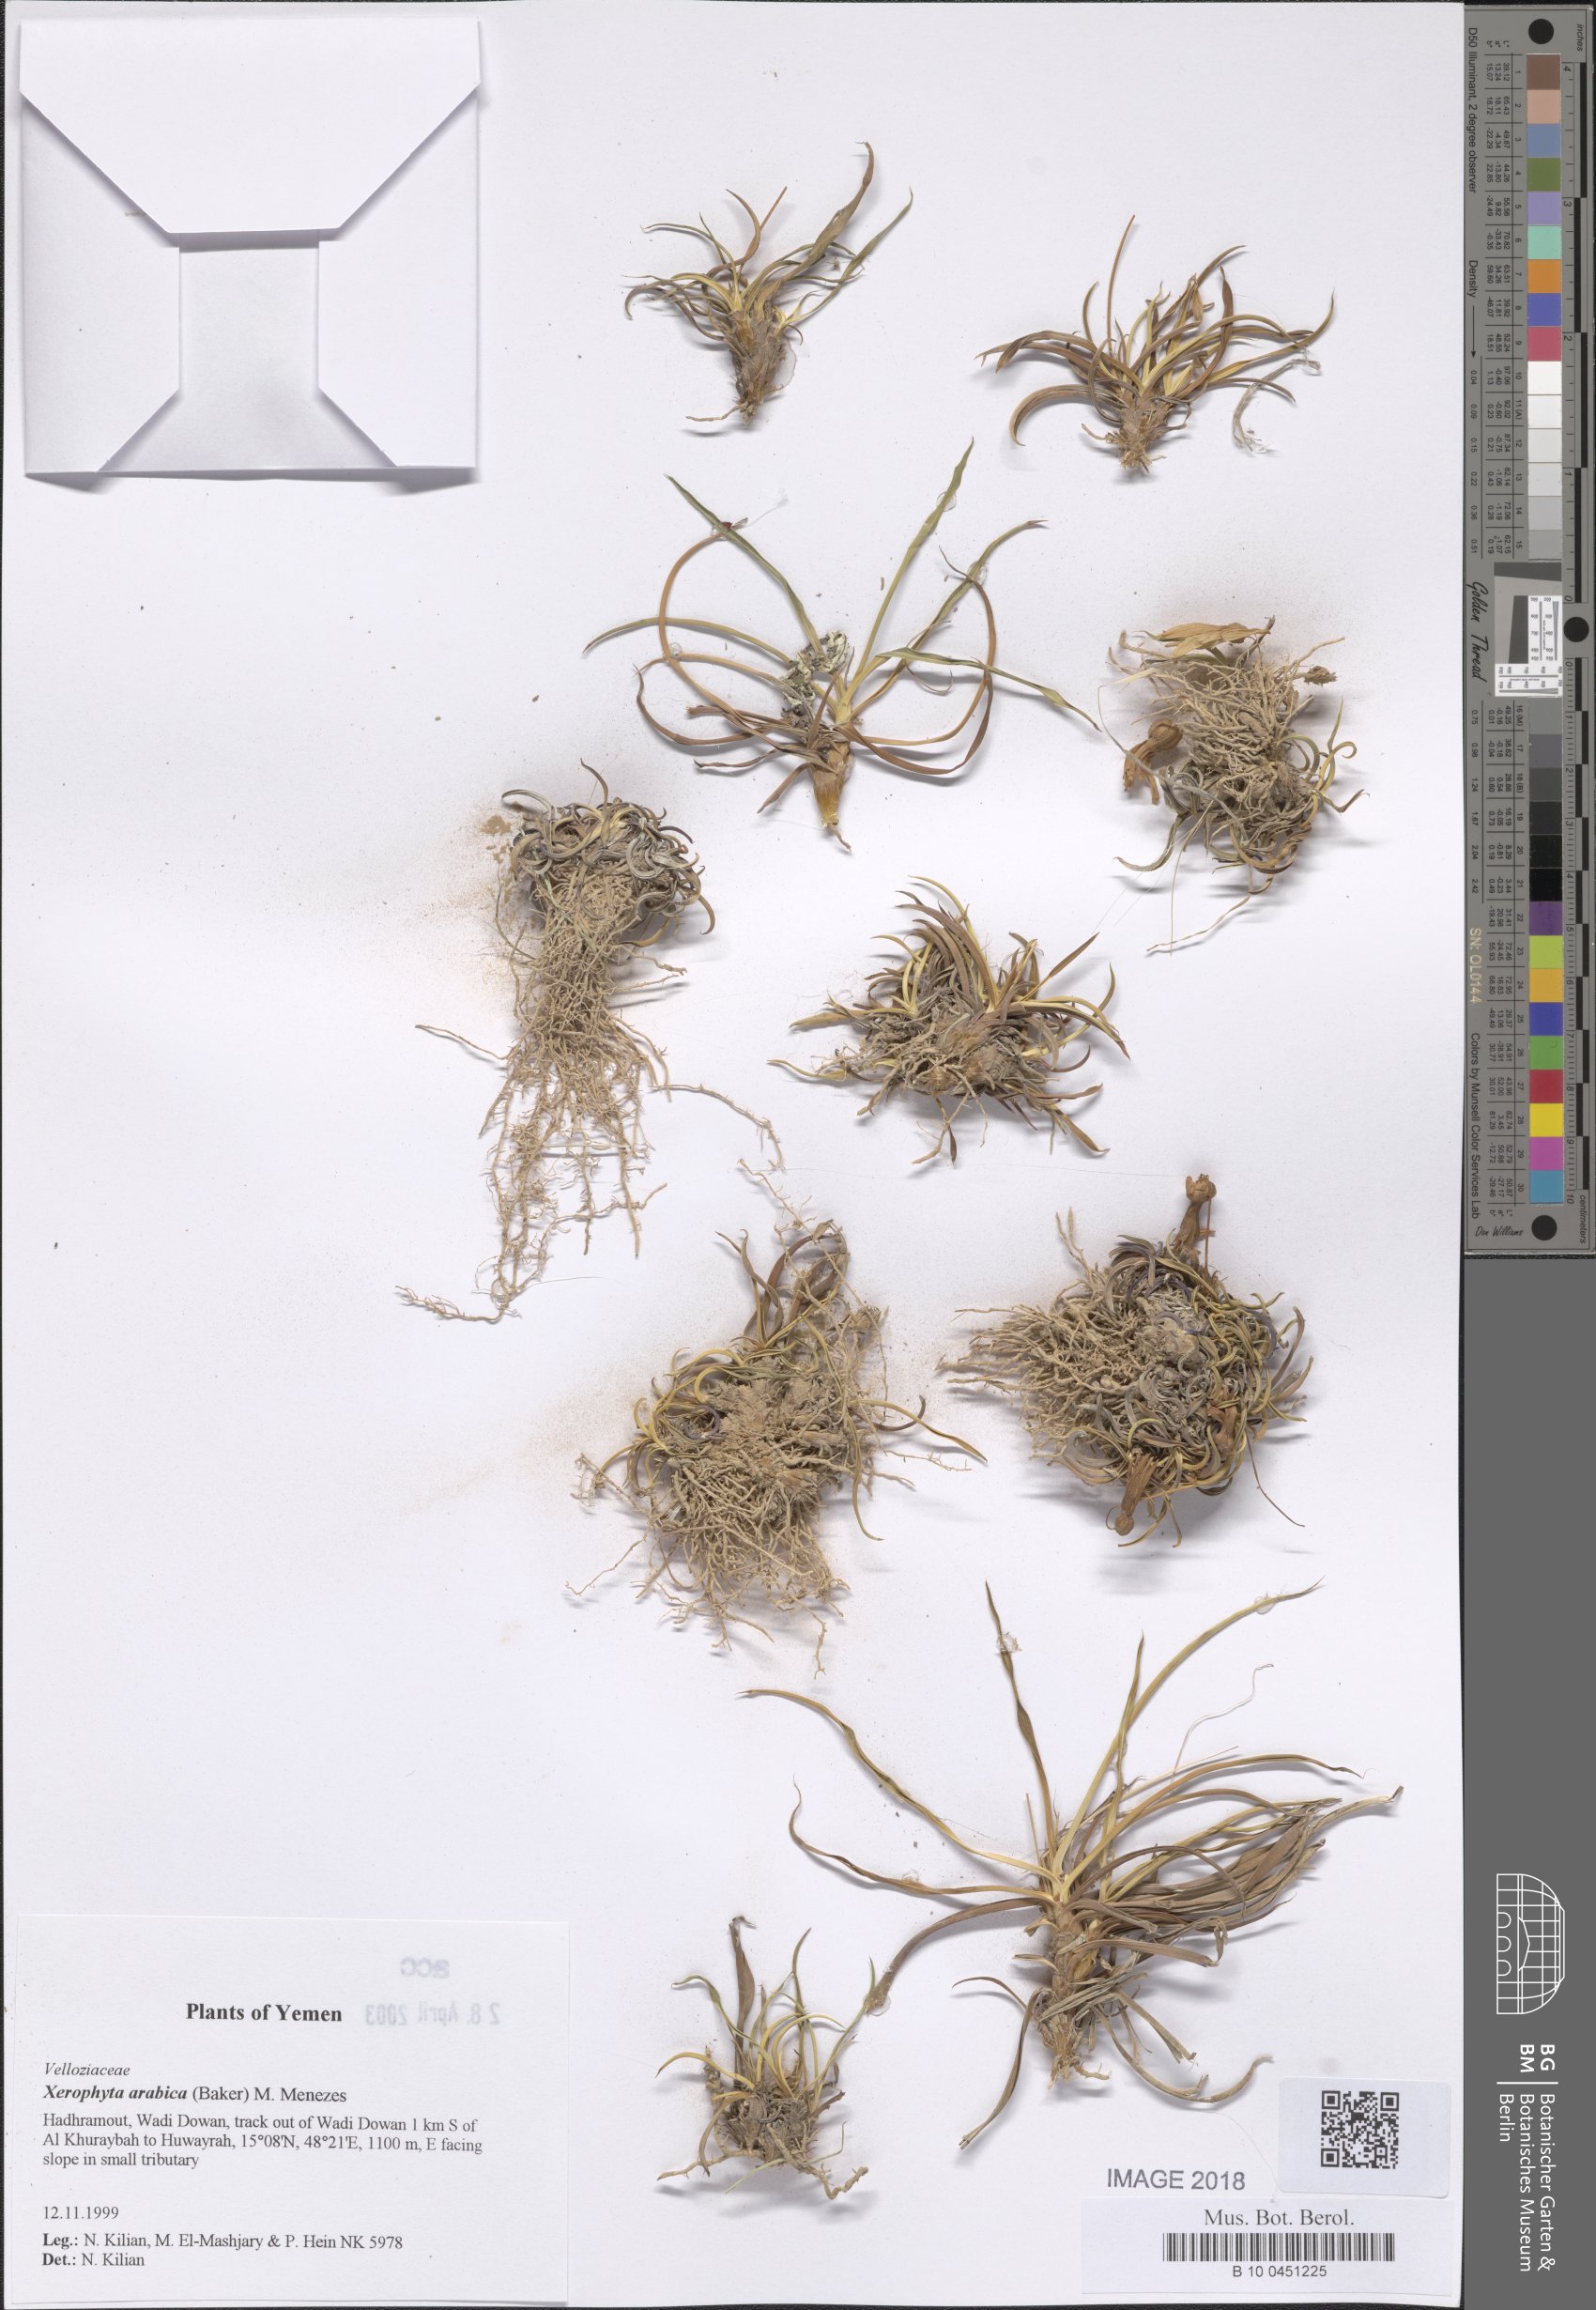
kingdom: Plantae
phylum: Tracheophyta
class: Liliopsida
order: Pandanales
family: Velloziaceae
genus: Xerophyta
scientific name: Xerophyta arabica
